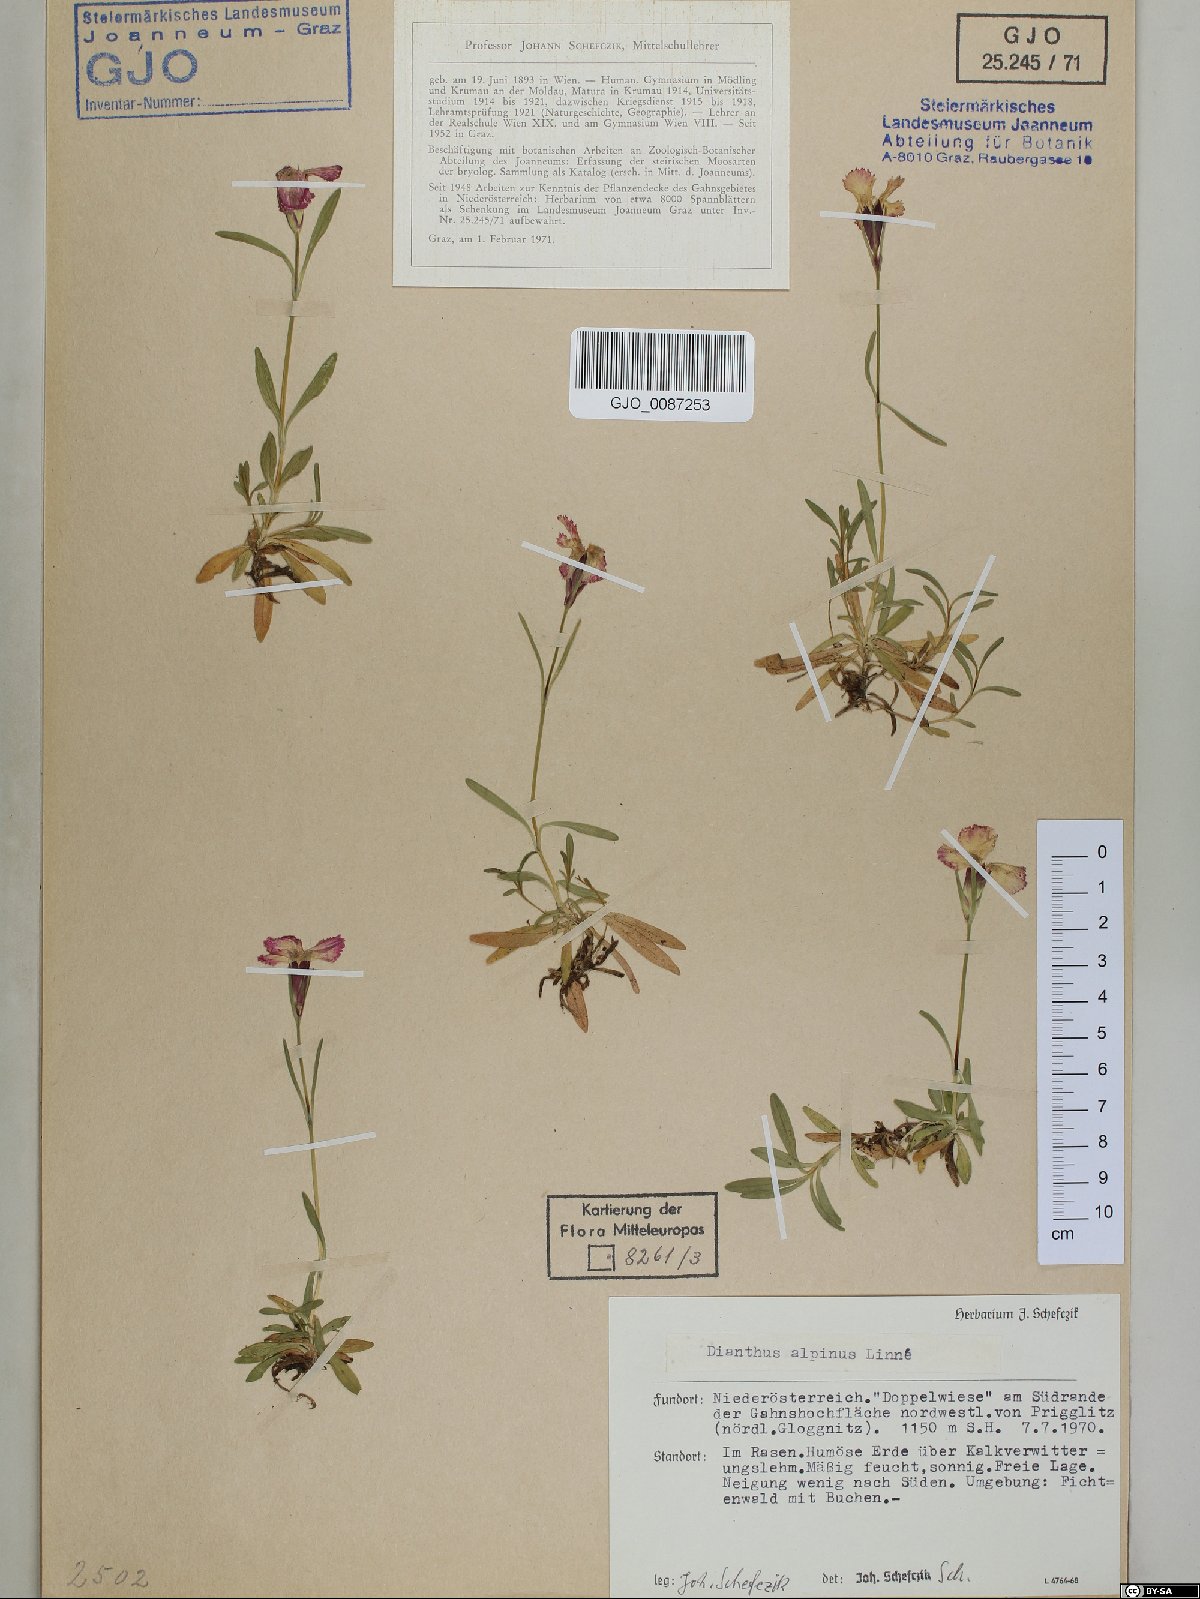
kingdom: Plantae
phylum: Tracheophyta
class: Magnoliopsida
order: Caryophyllales
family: Caryophyllaceae
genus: Dianthus
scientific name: Dianthus alpinus
